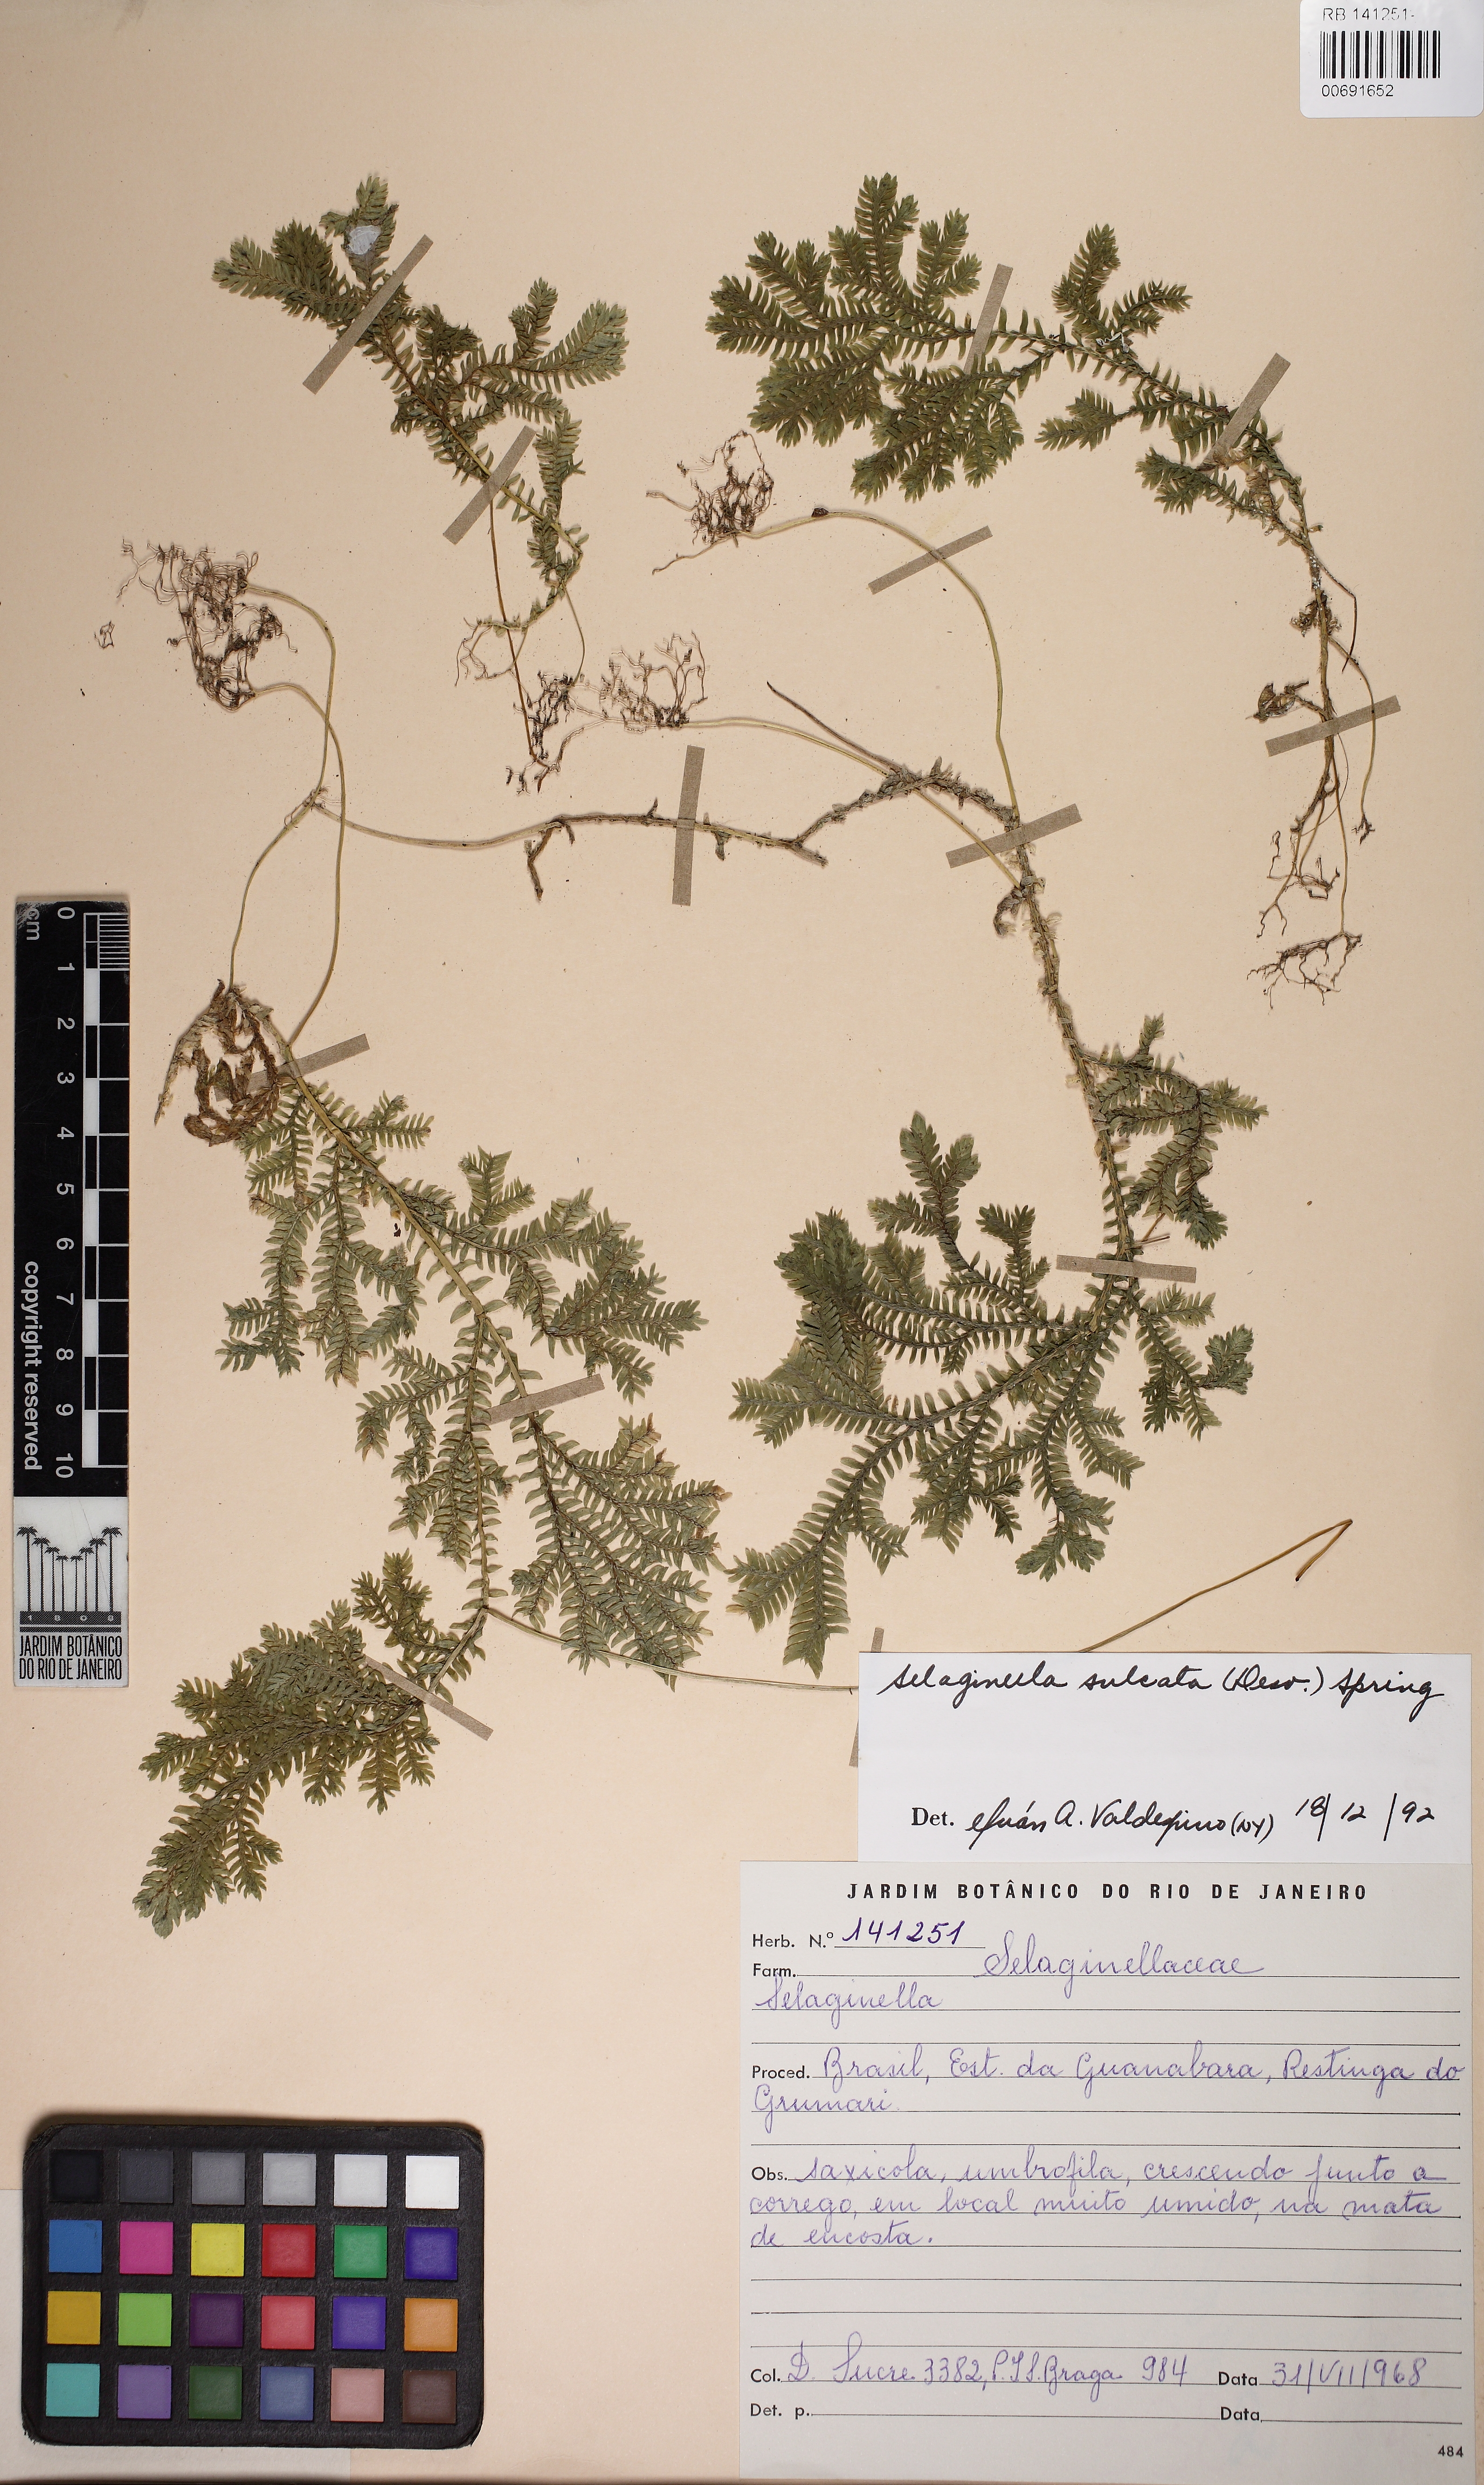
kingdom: Plantae
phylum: Tracheophyta
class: Lycopodiopsida
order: Selaginellales
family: Selaginellaceae
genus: Selaginella
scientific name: Selaginella sulcata
